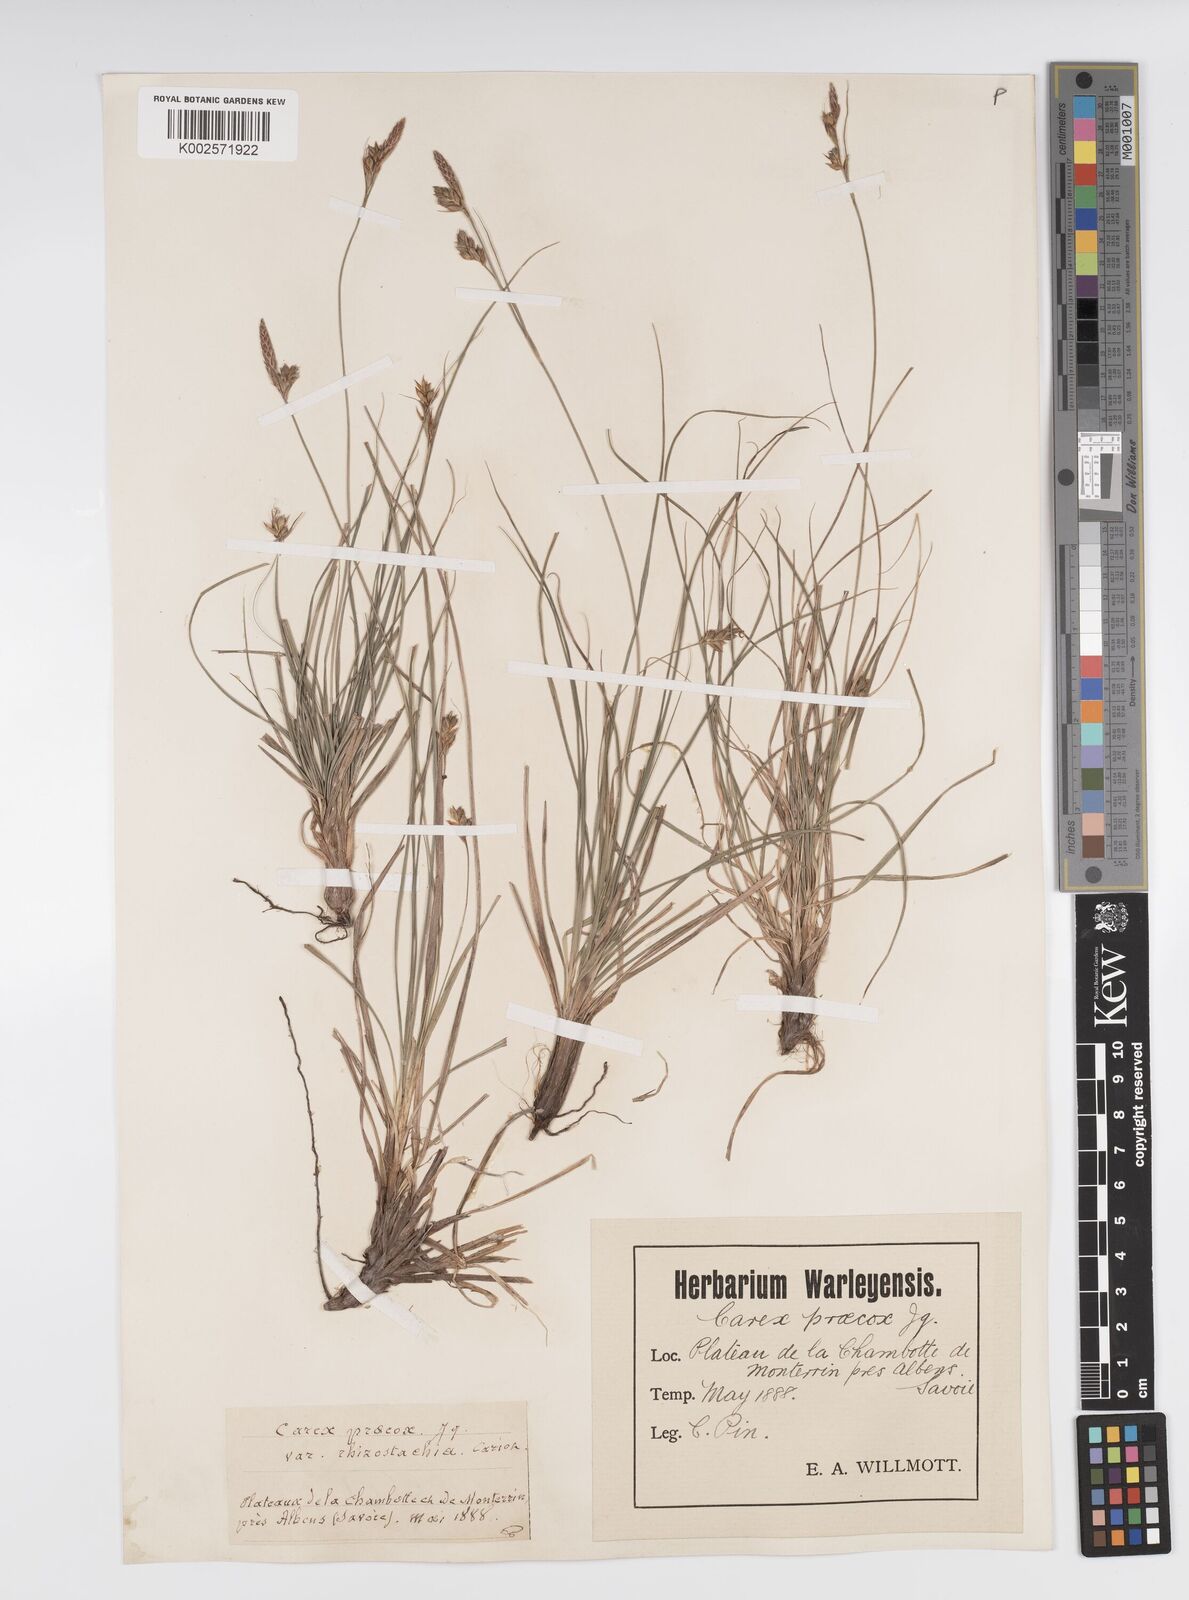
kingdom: Plantae
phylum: Tracheophyta
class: Liliopsida
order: Poales
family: Cyperaceae
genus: Carex
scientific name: Carex halleriana
